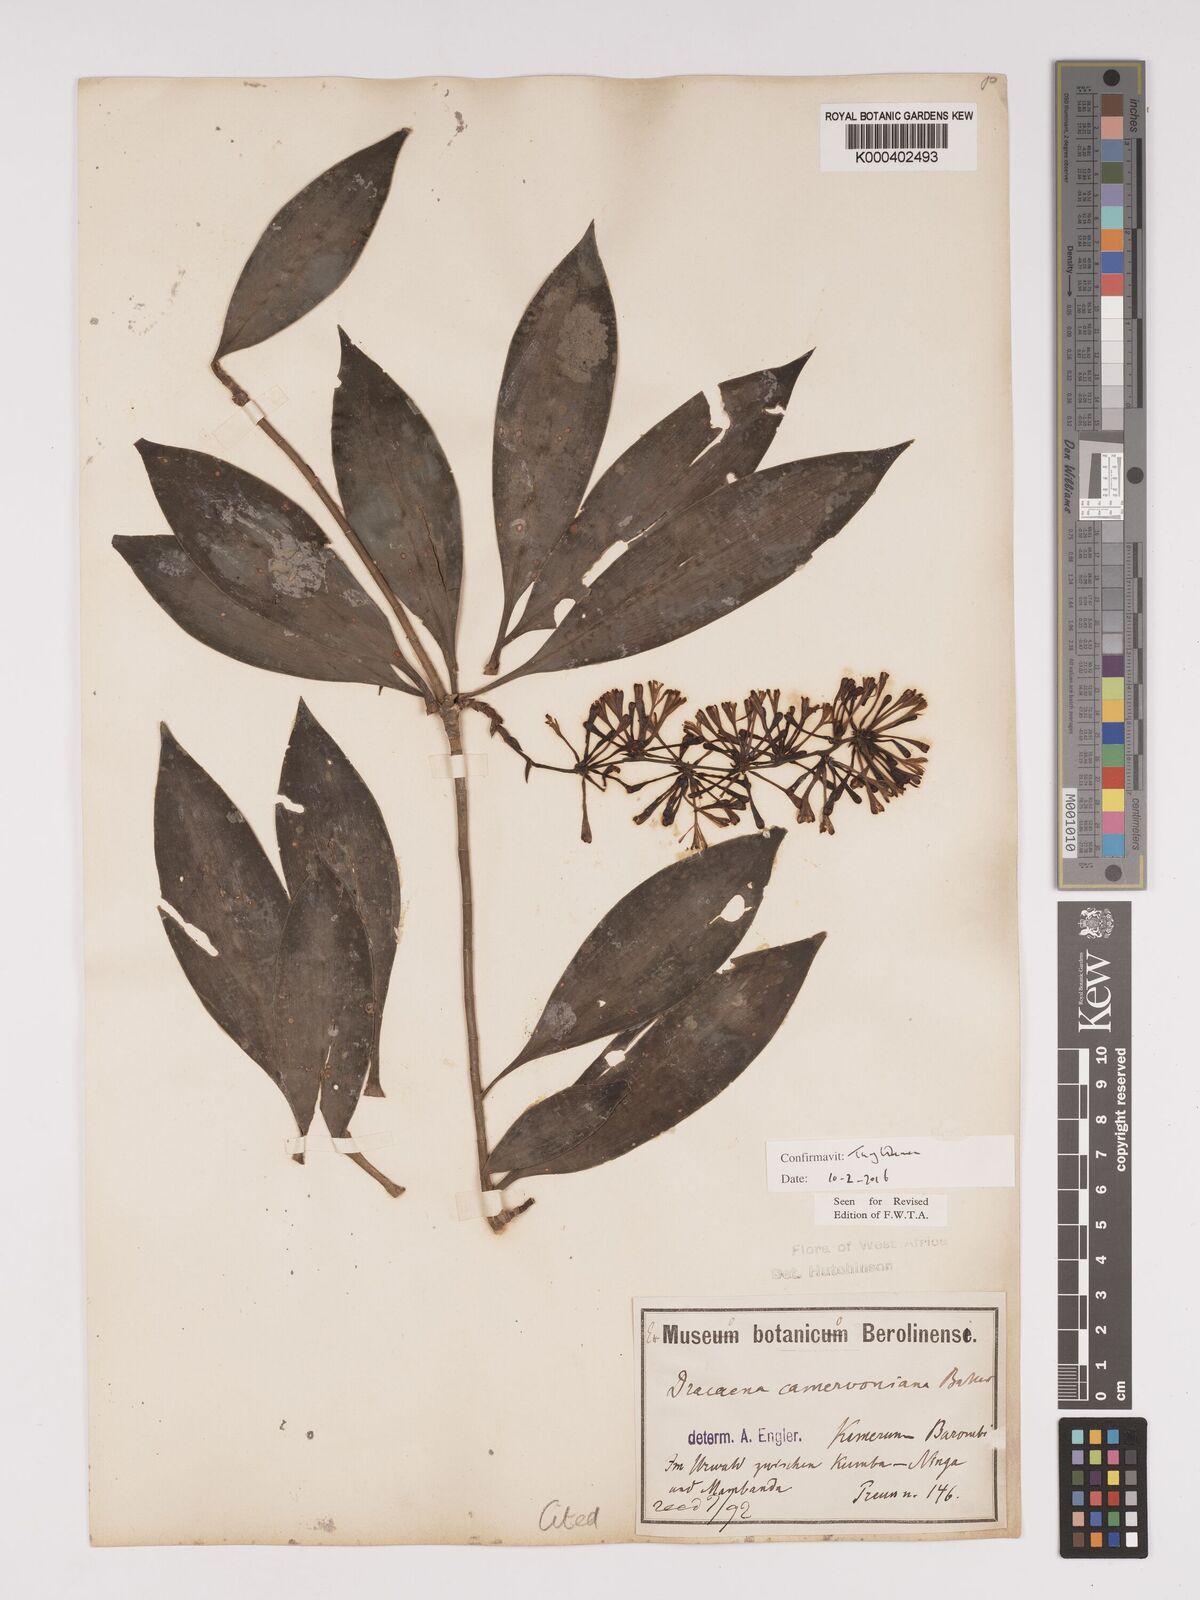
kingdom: Plantae
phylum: Tracheophyta
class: Liliopsida
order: Asparagales
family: Asparagaceae
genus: Dracaena
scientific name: Dracaena camerooniana
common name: Dragon tree
